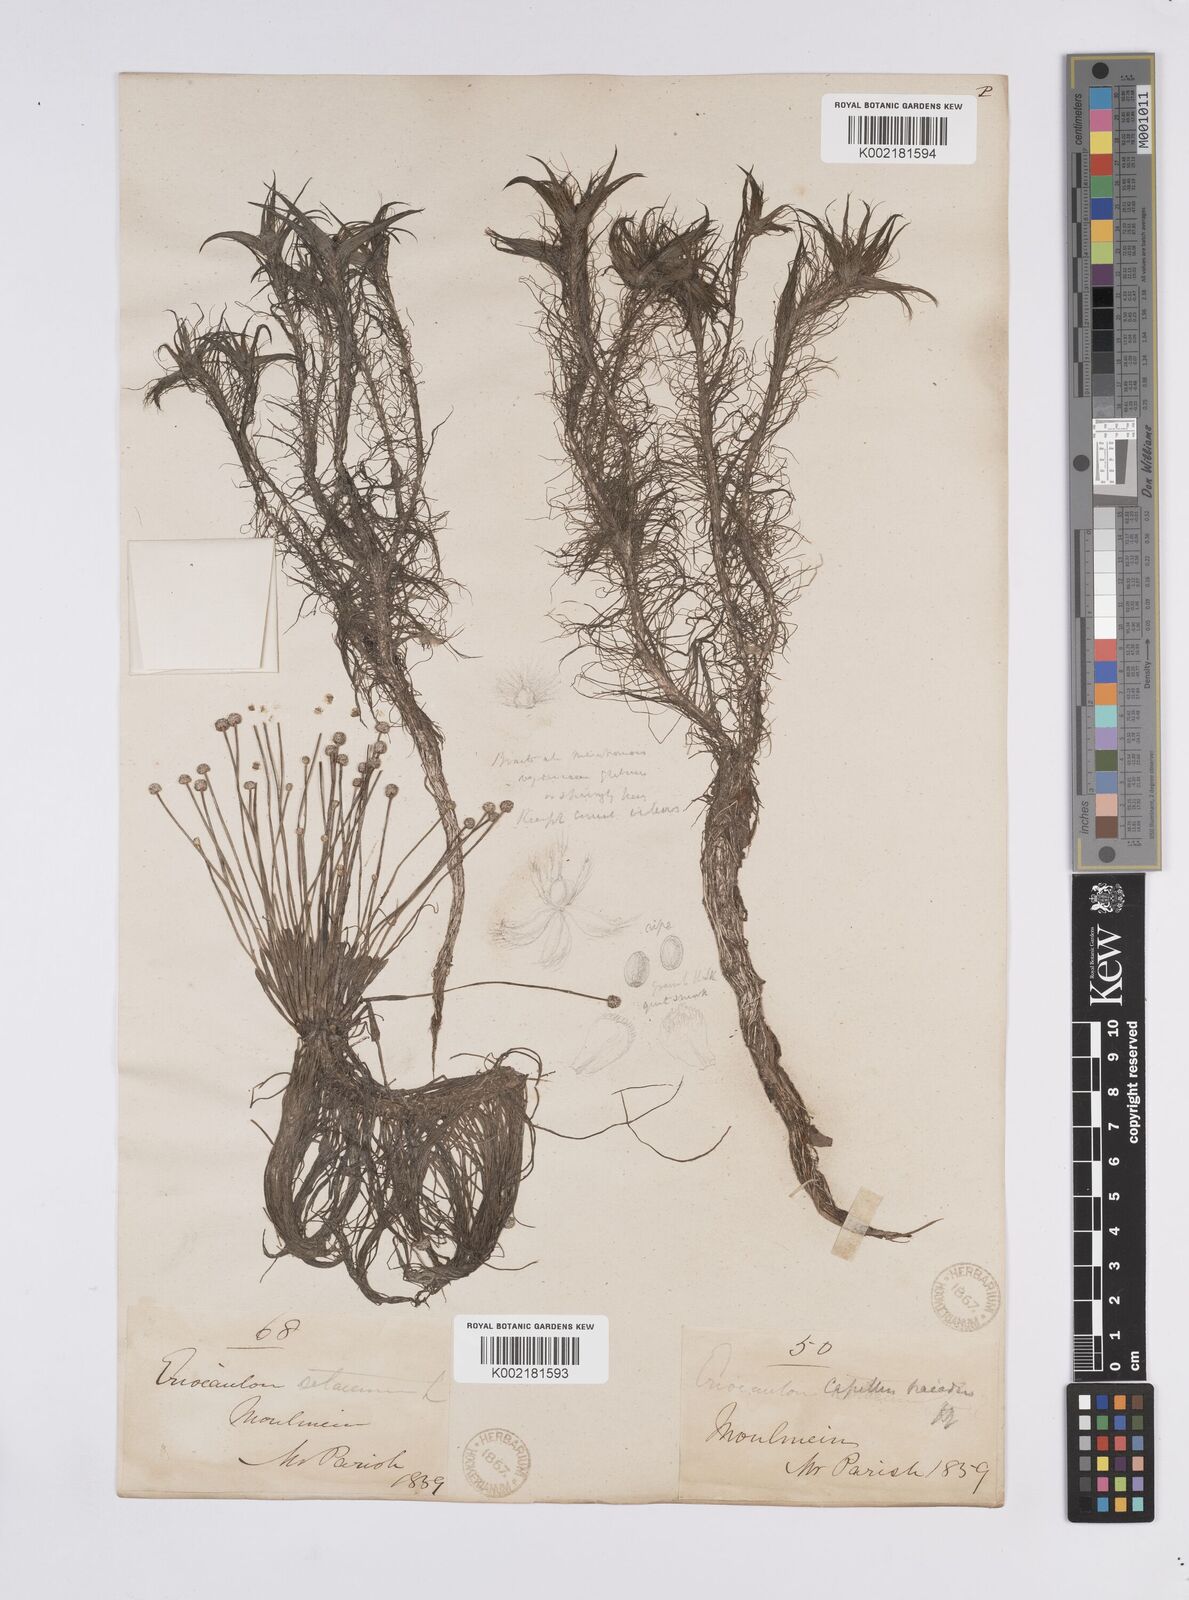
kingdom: Plantae
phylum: Tracheophyta
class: Liliopsida
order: Poales
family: Eriocaulaceae
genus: Eriocaulon
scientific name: Eriocaulon setaceum
